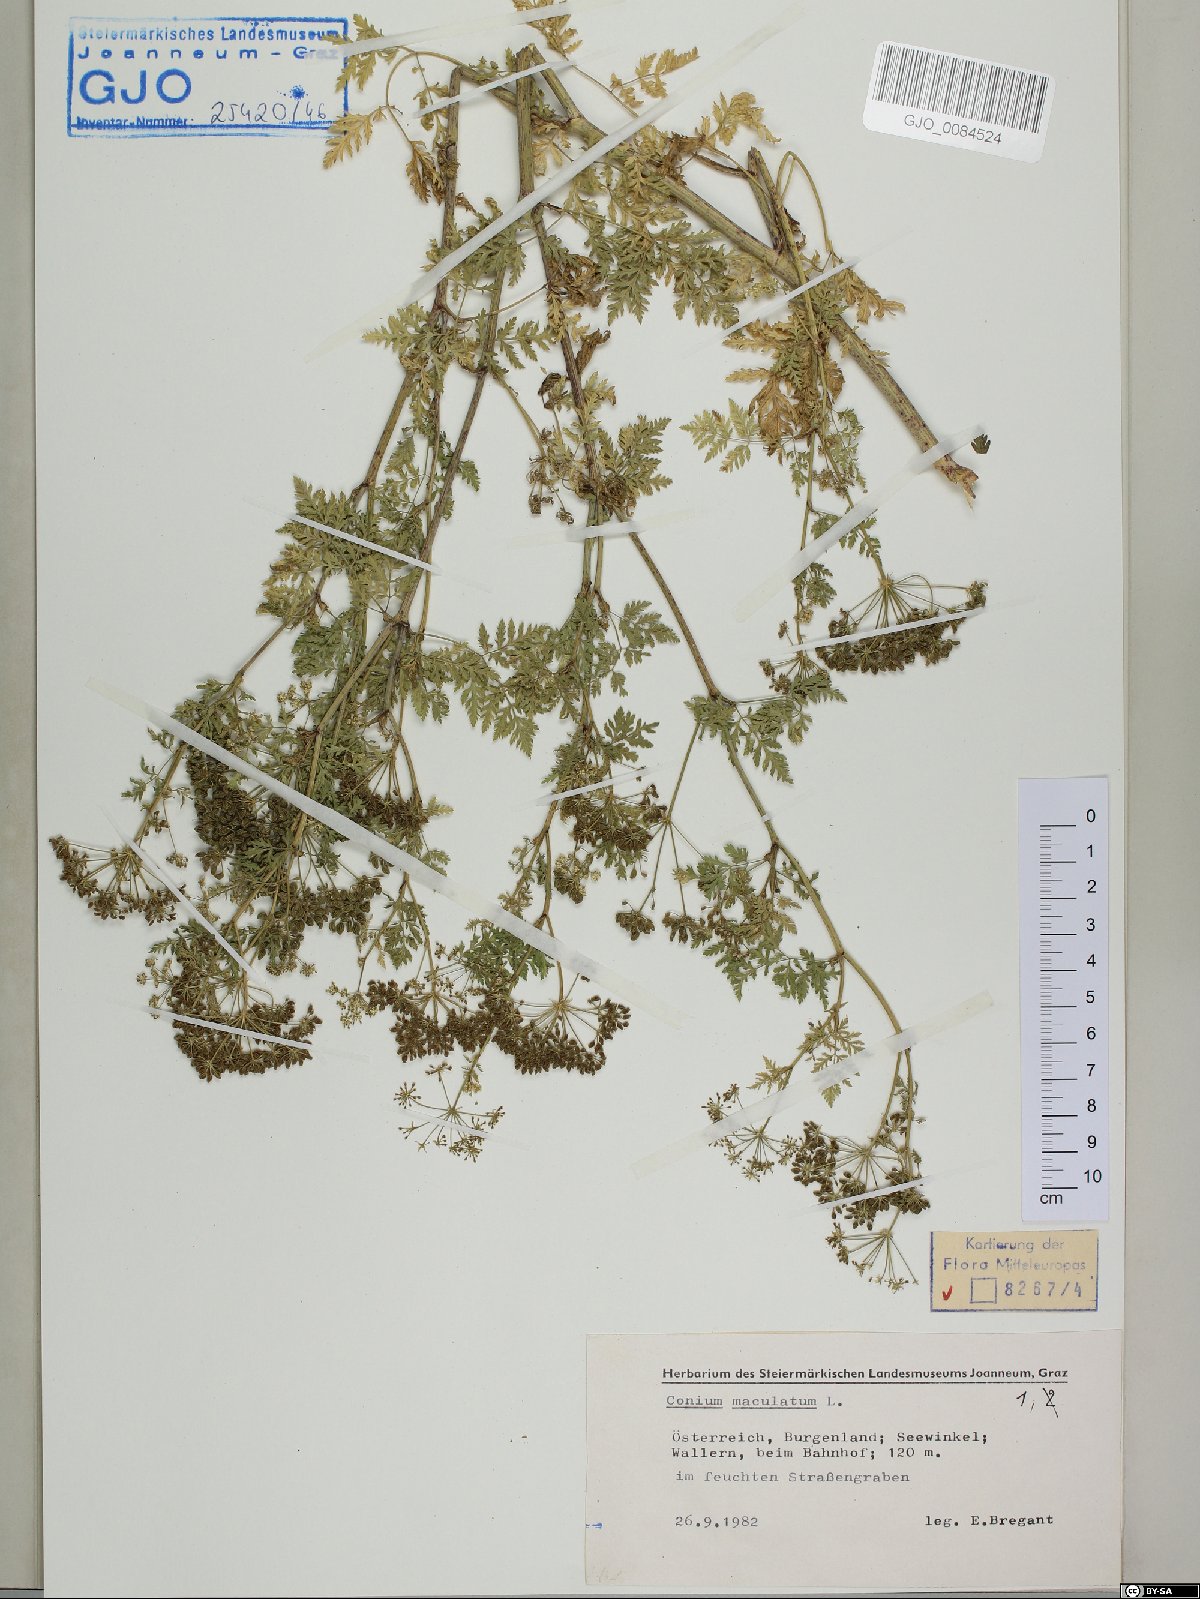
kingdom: Plantae
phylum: Tracheophyta
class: Magnoliopsida
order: Apiales
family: Apiaceae
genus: Conium
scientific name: Conium maculatum
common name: Hemlock
